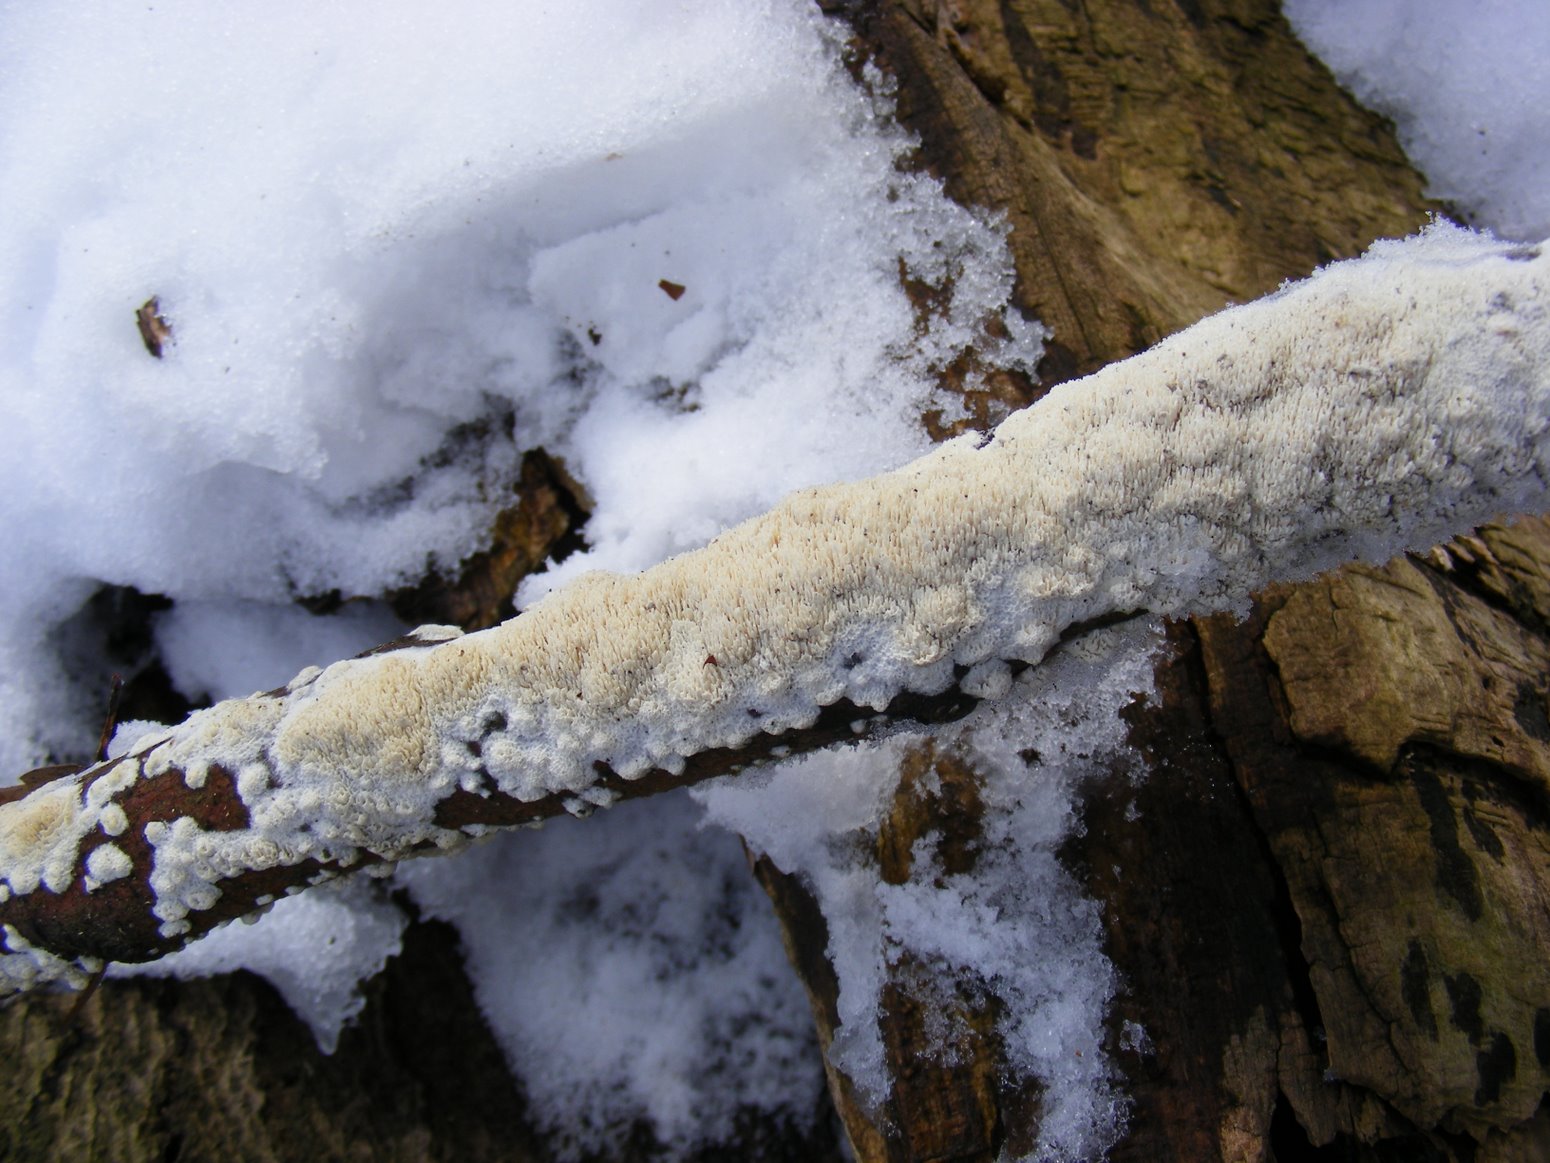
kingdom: Fungi
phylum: Basidiomycota
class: Agaricomycetes
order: Hymenochaetales
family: Schizoporaceae
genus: Schizopora
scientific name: Schizopora paradoxa
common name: hvid tandsvamp
